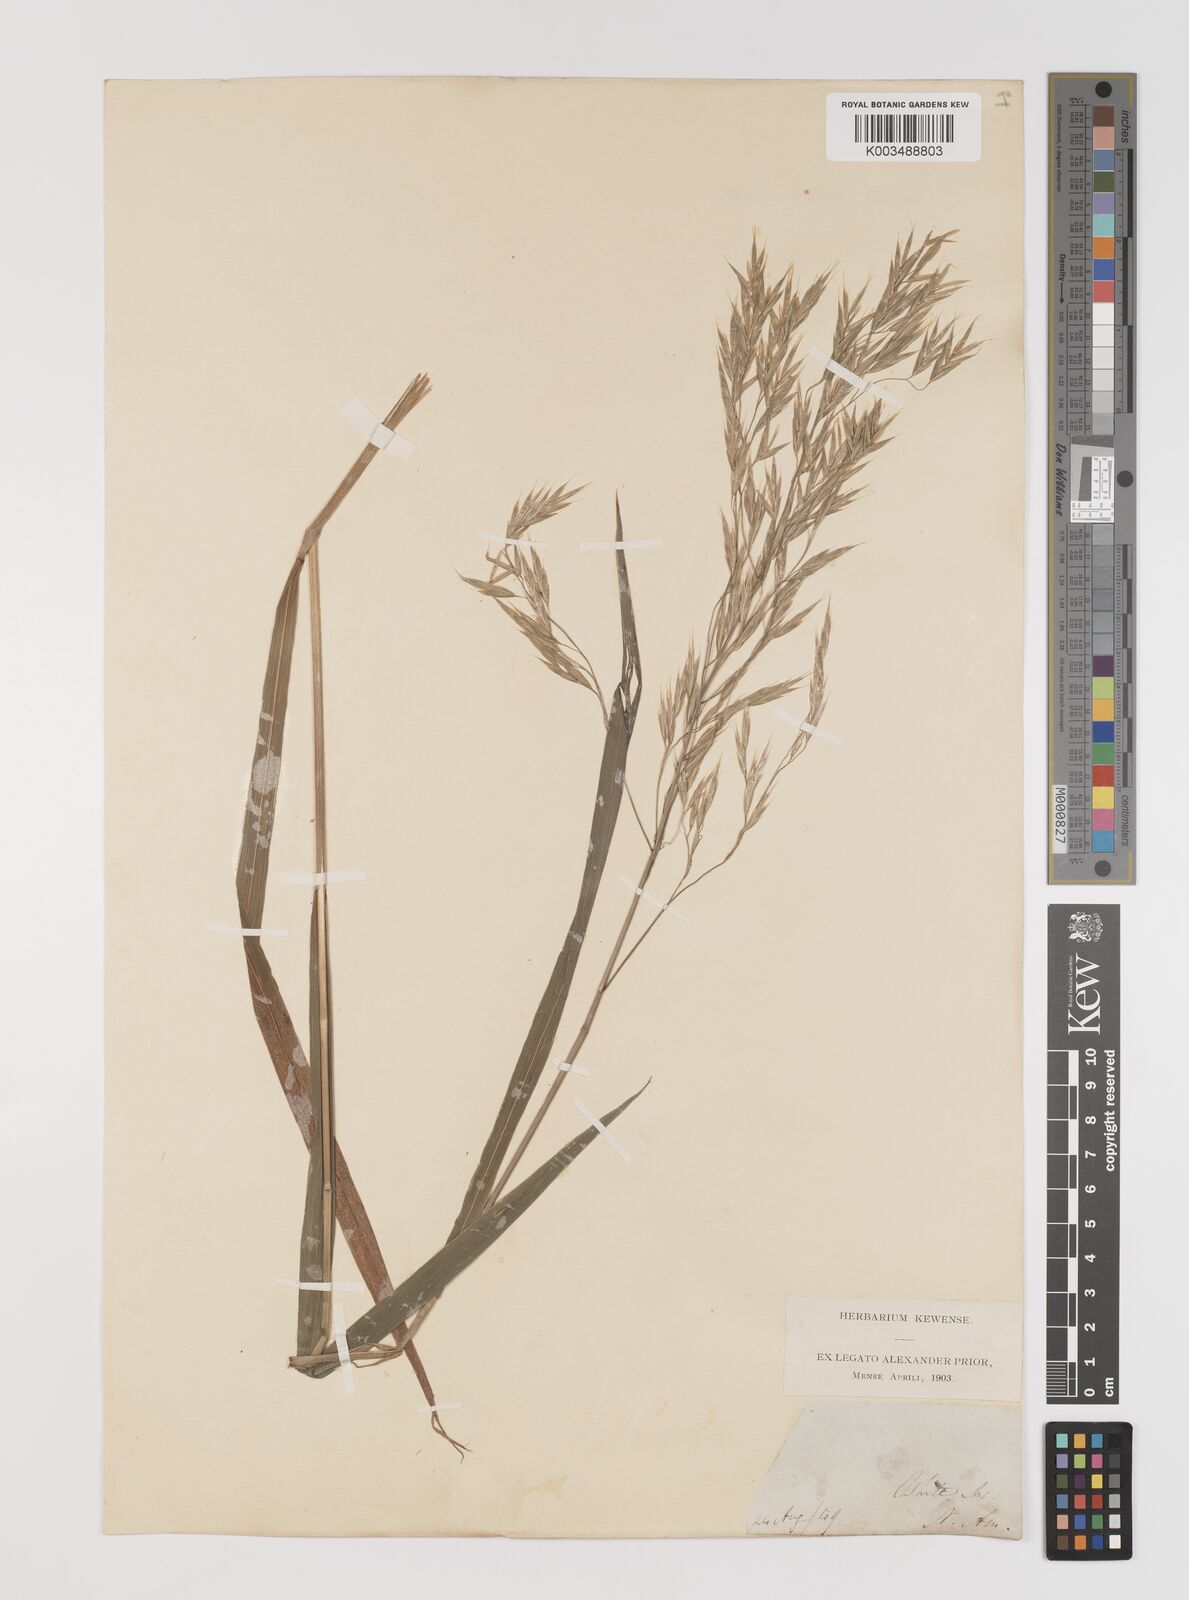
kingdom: Plantae
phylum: Tracheophyta
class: Liliopsida
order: Poales
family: Poaceae
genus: Bromus
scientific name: Bromus
